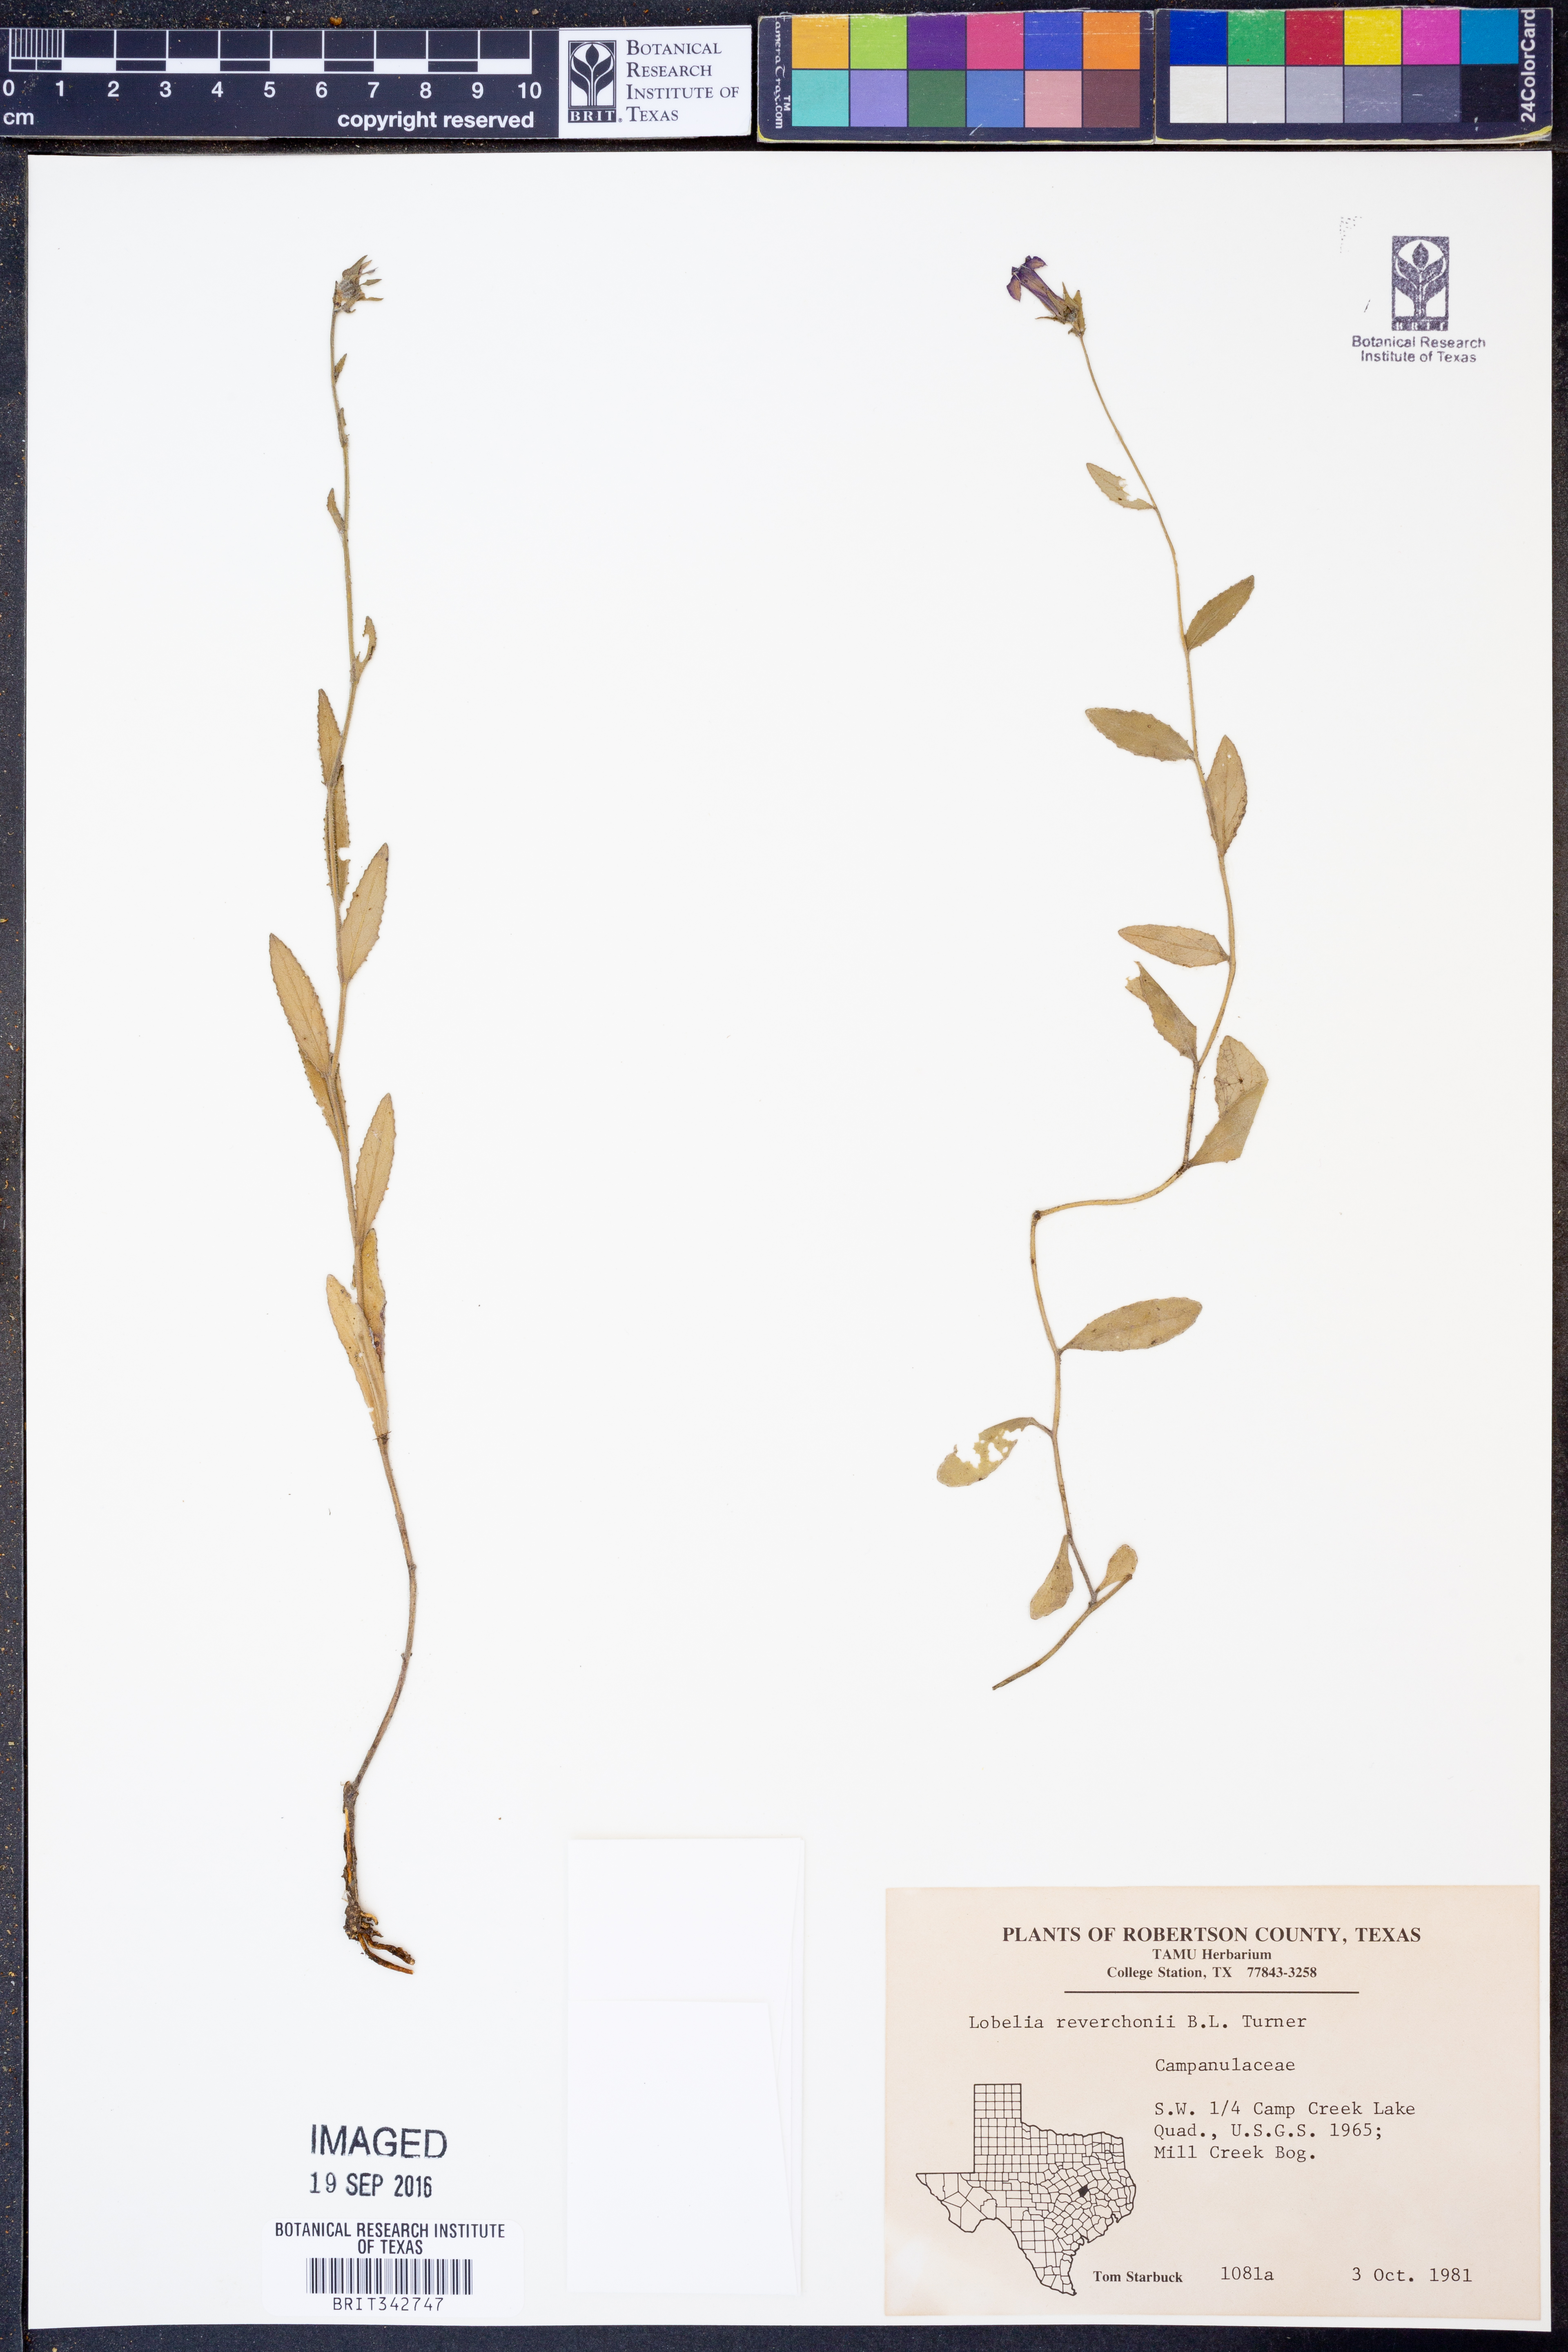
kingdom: Plantae
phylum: Tracheophyta
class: Magnoliopsida
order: Asterales
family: Campanulaceae
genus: Lobelia
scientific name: Lobelia reverchonii
